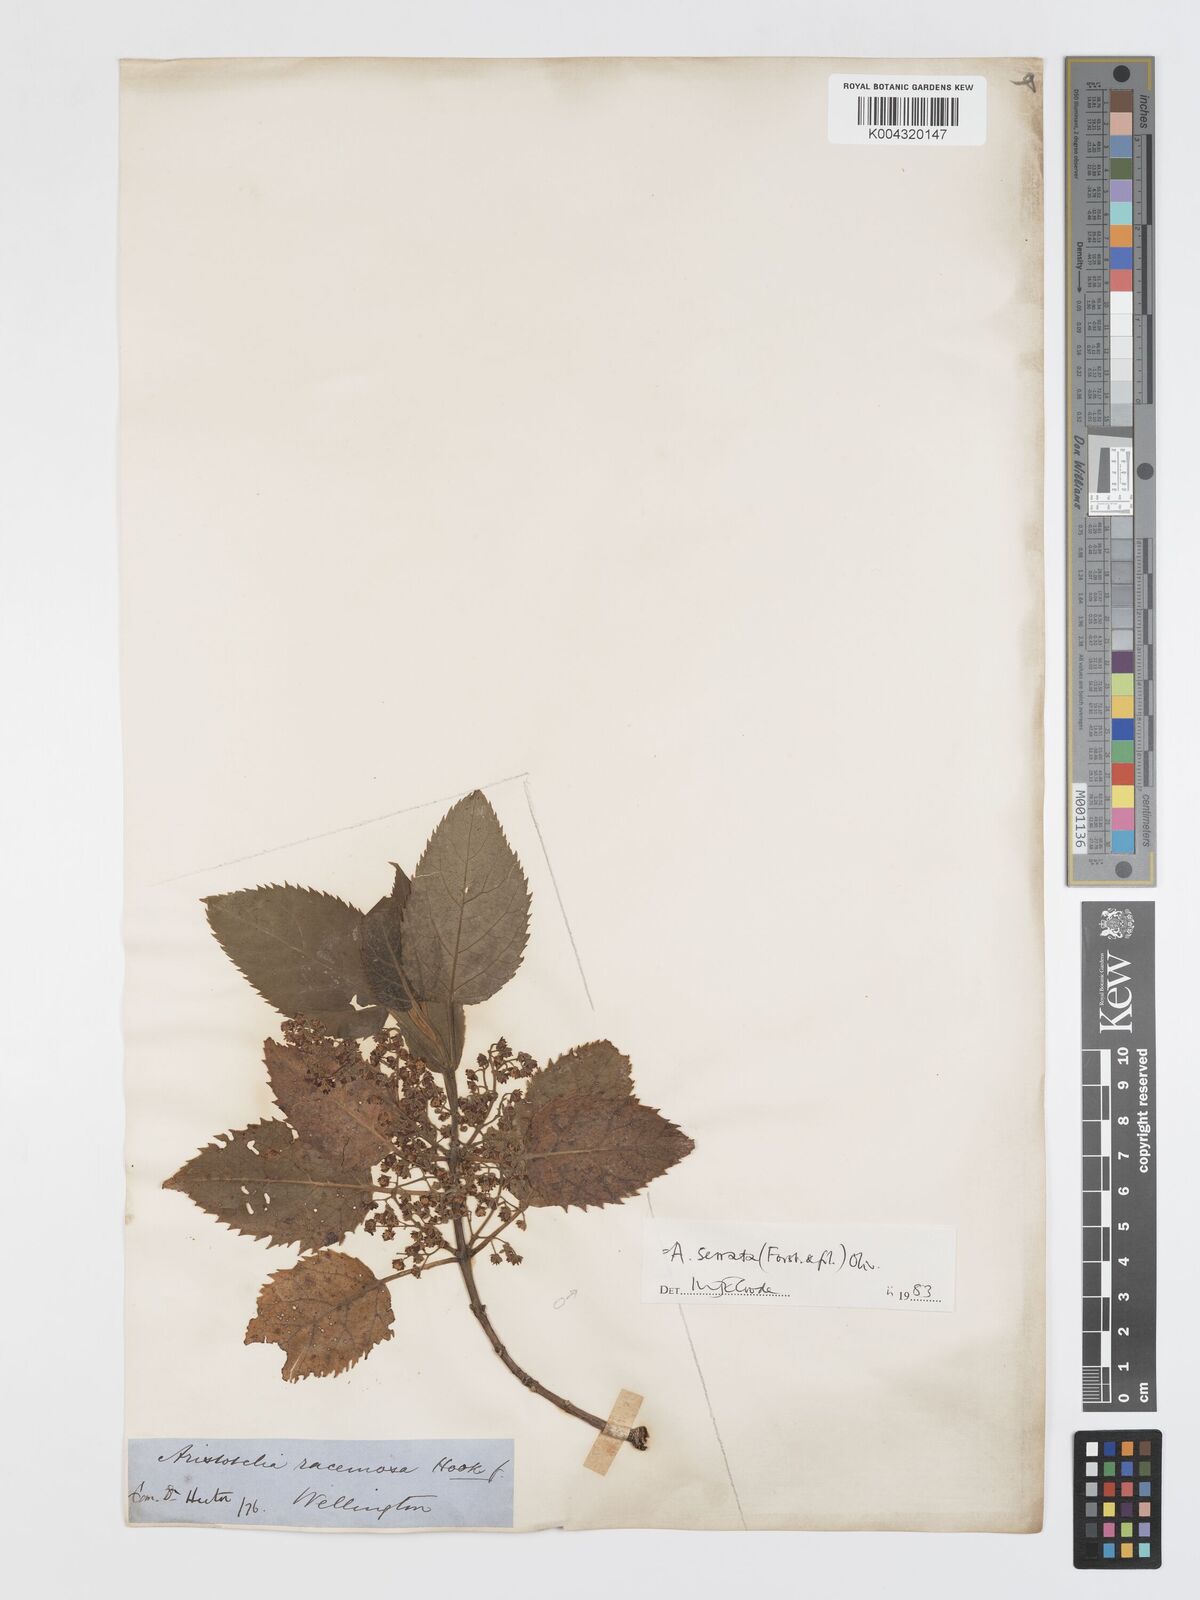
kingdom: Plantae
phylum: Tracheophyta
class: Magnoliopsida
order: Oxalidales
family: Elaeocarpaceae
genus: Aristotelia
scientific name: Aristotelia serrata
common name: New zealand wineberry
